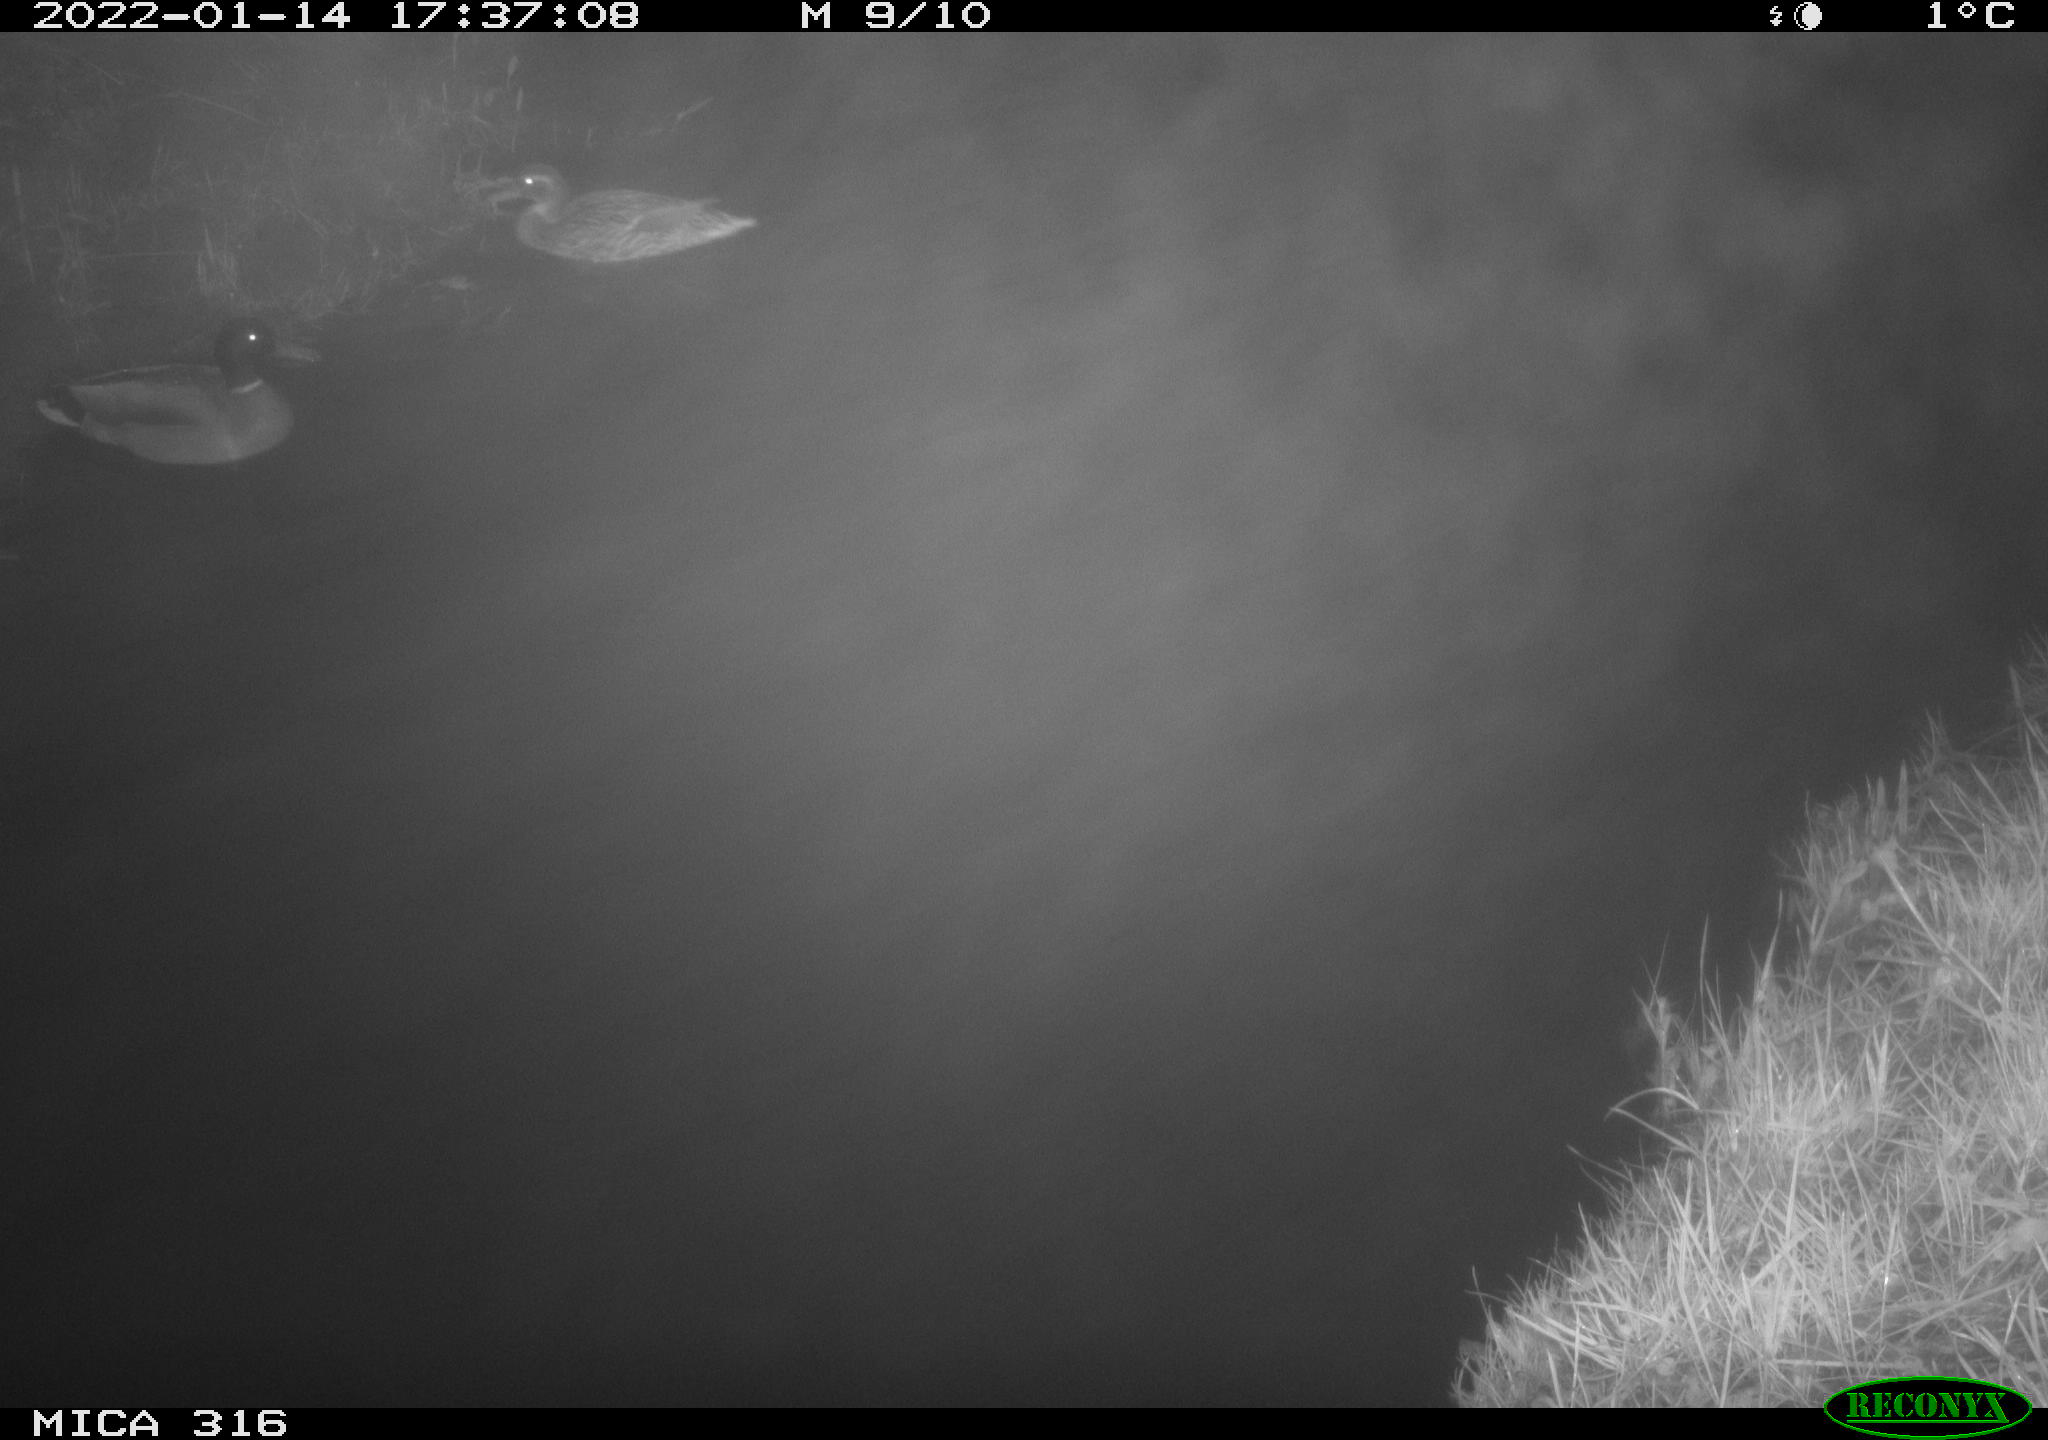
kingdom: Animalia
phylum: Chordata
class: Aves
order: Anseriformes
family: Anatidae
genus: Anas
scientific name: Anas
